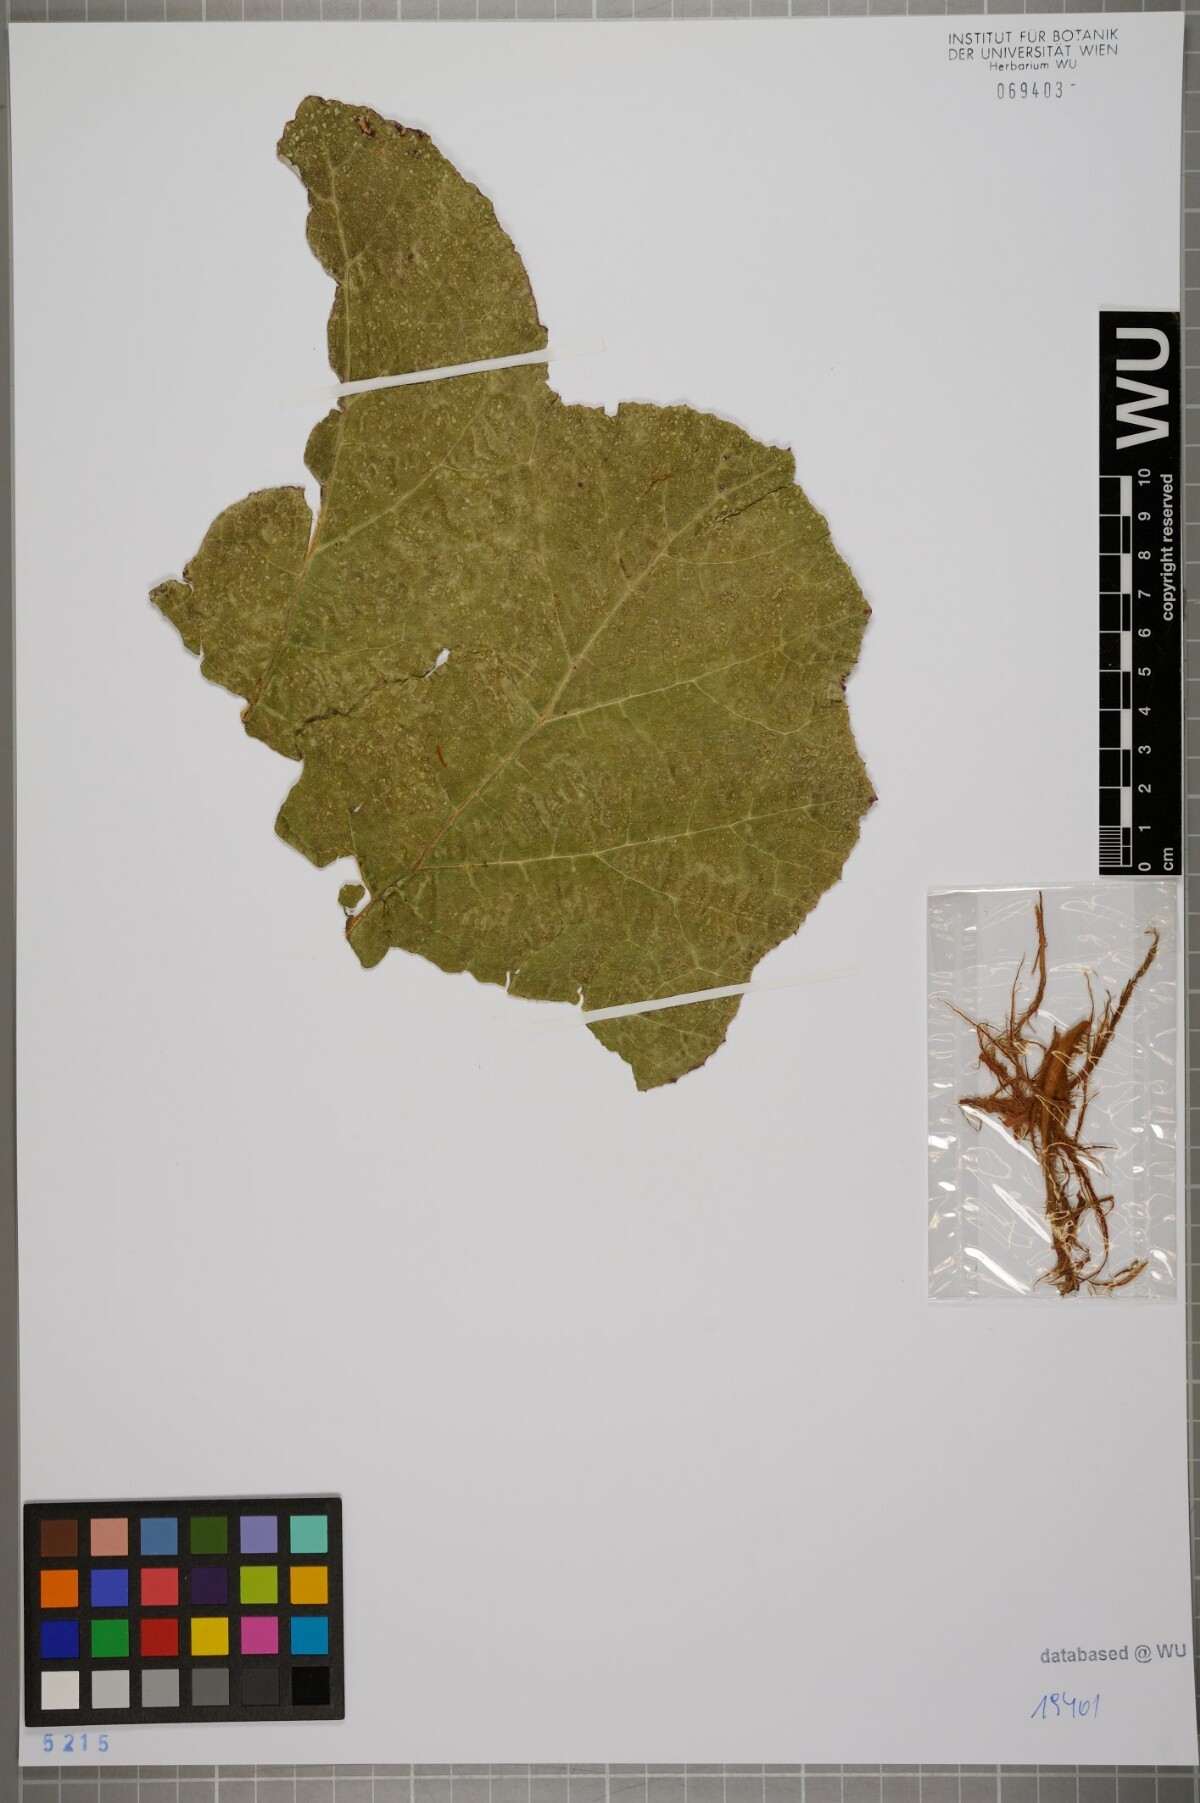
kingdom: Plantae
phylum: Tracheophyta
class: Magnoliopsida
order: Gunnerales
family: Gunneraceae
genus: Gunnera
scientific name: Gunnera masafuerae
